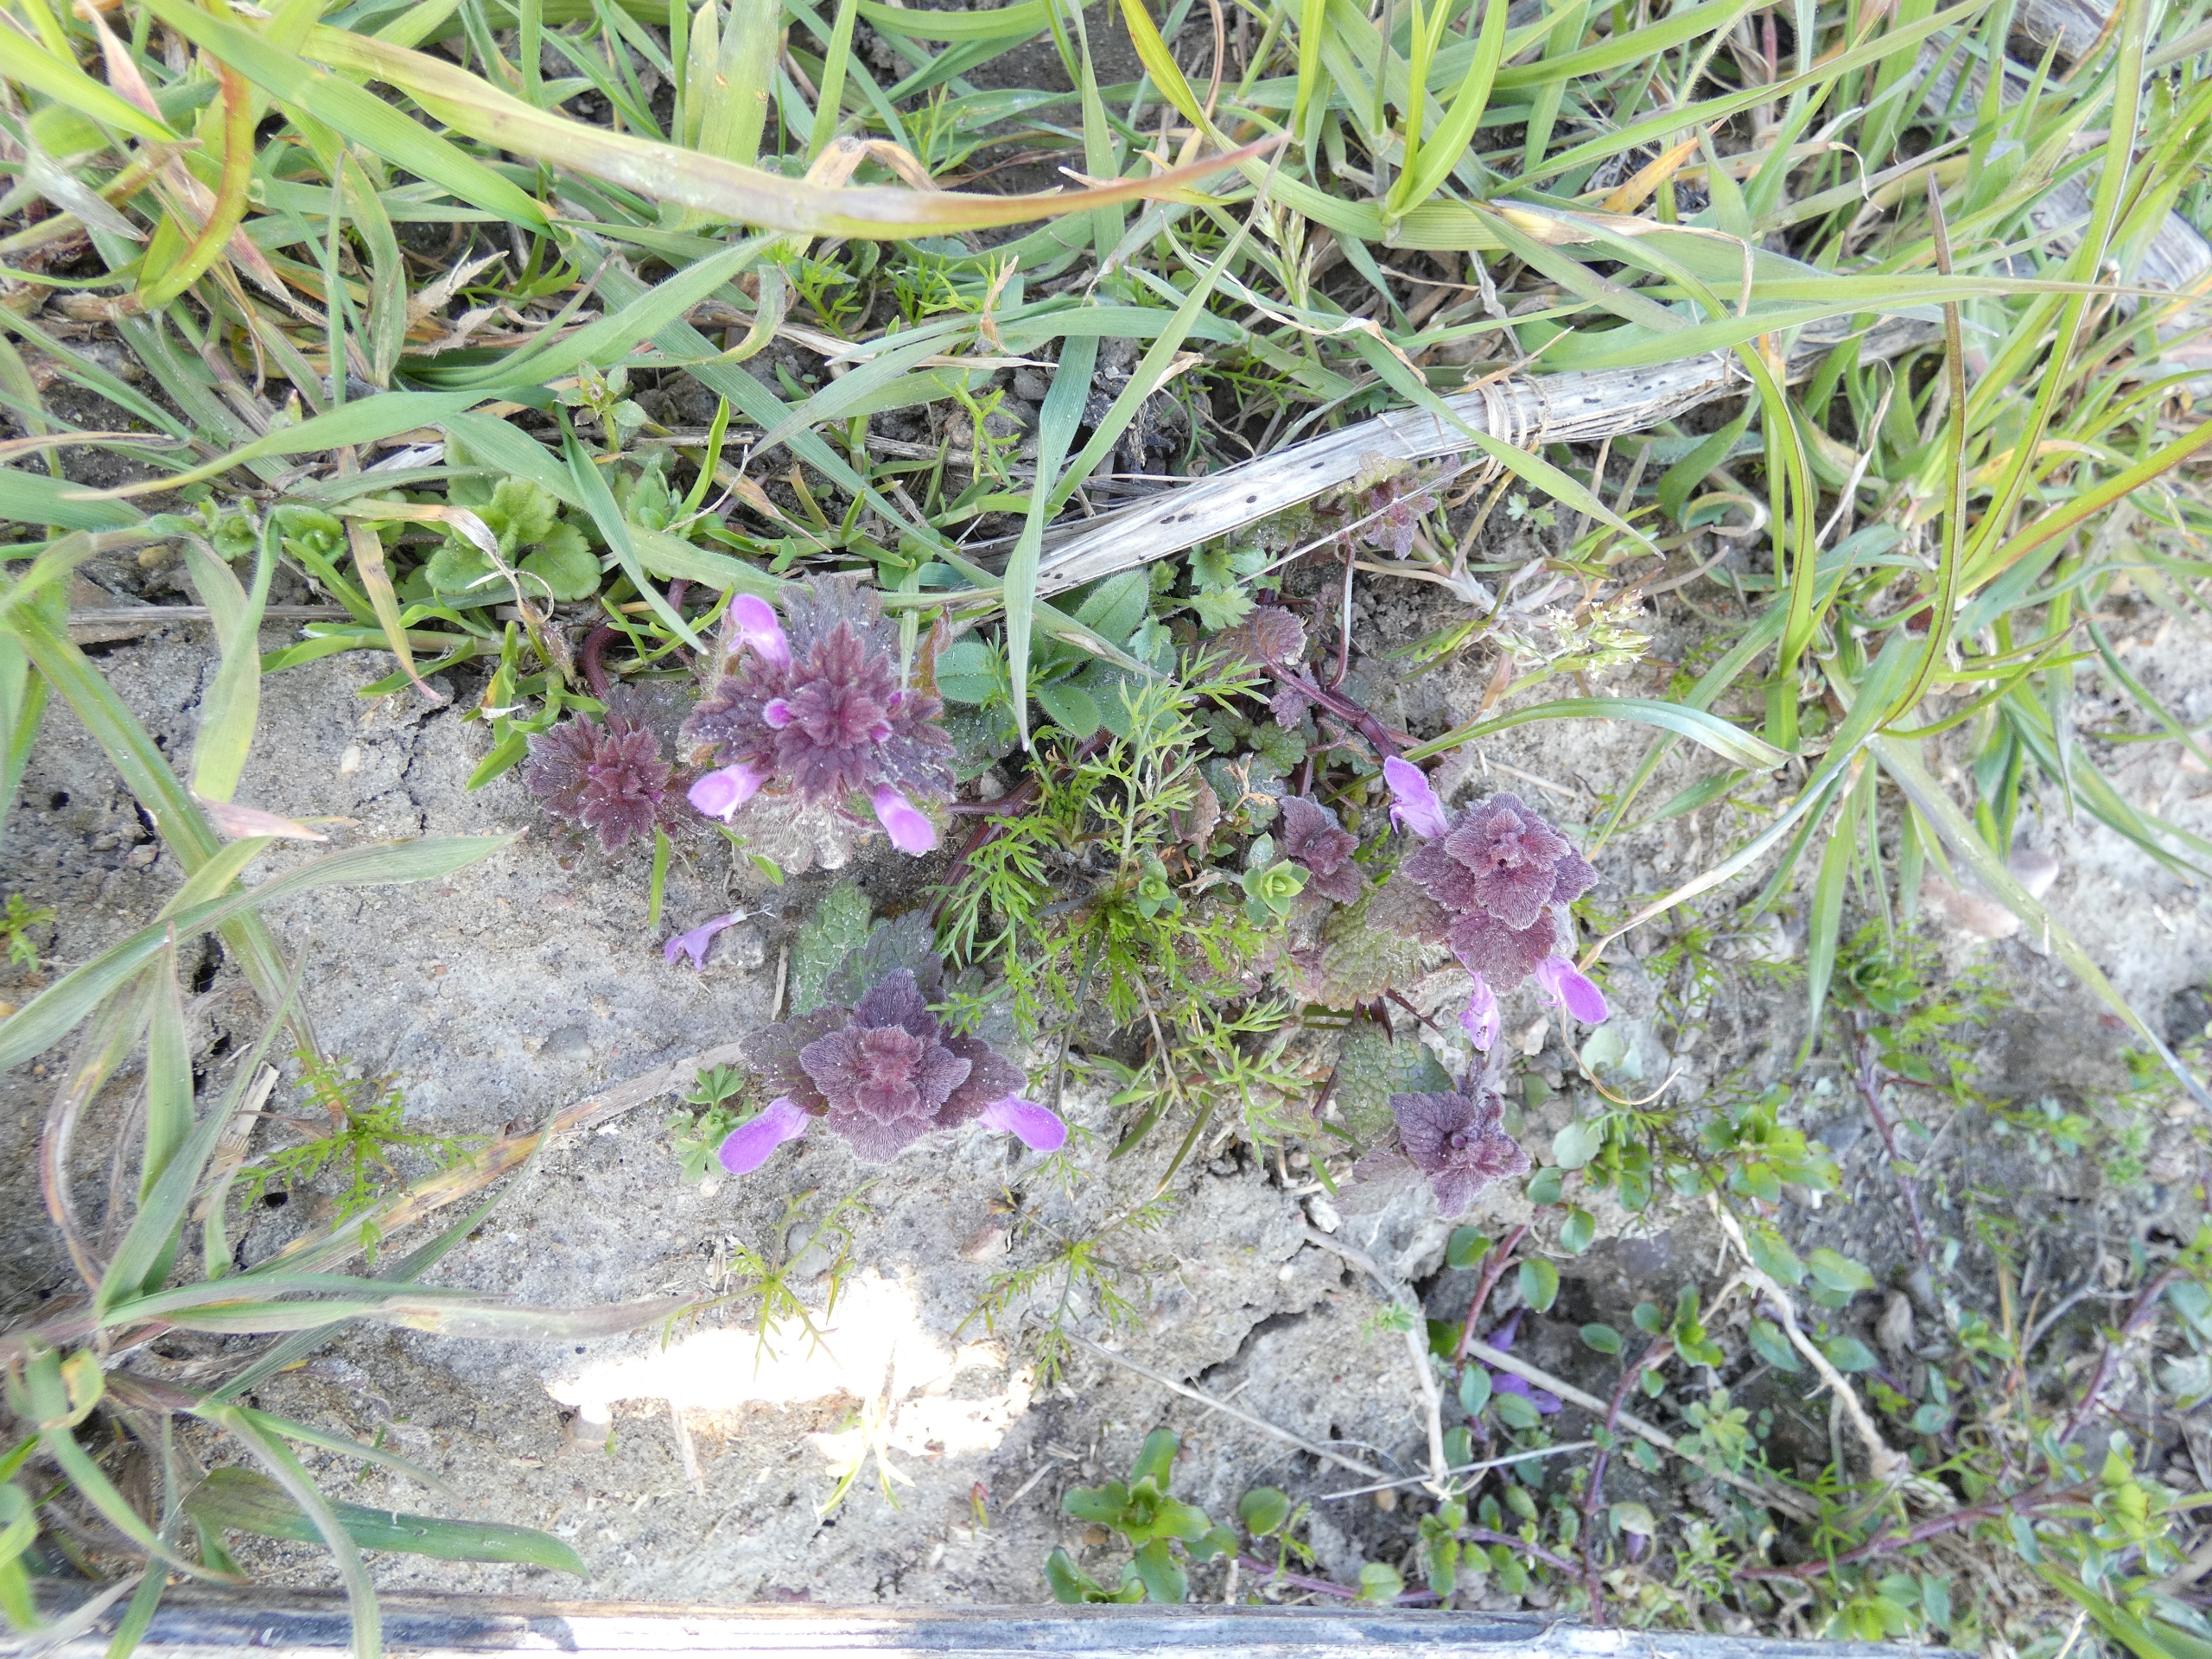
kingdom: Plantae
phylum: Tracheophyta
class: Magnoliopsida
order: Lamiales
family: Lamiaceae
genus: Lamium
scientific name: Lamium purpureum
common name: Rød tvetand
